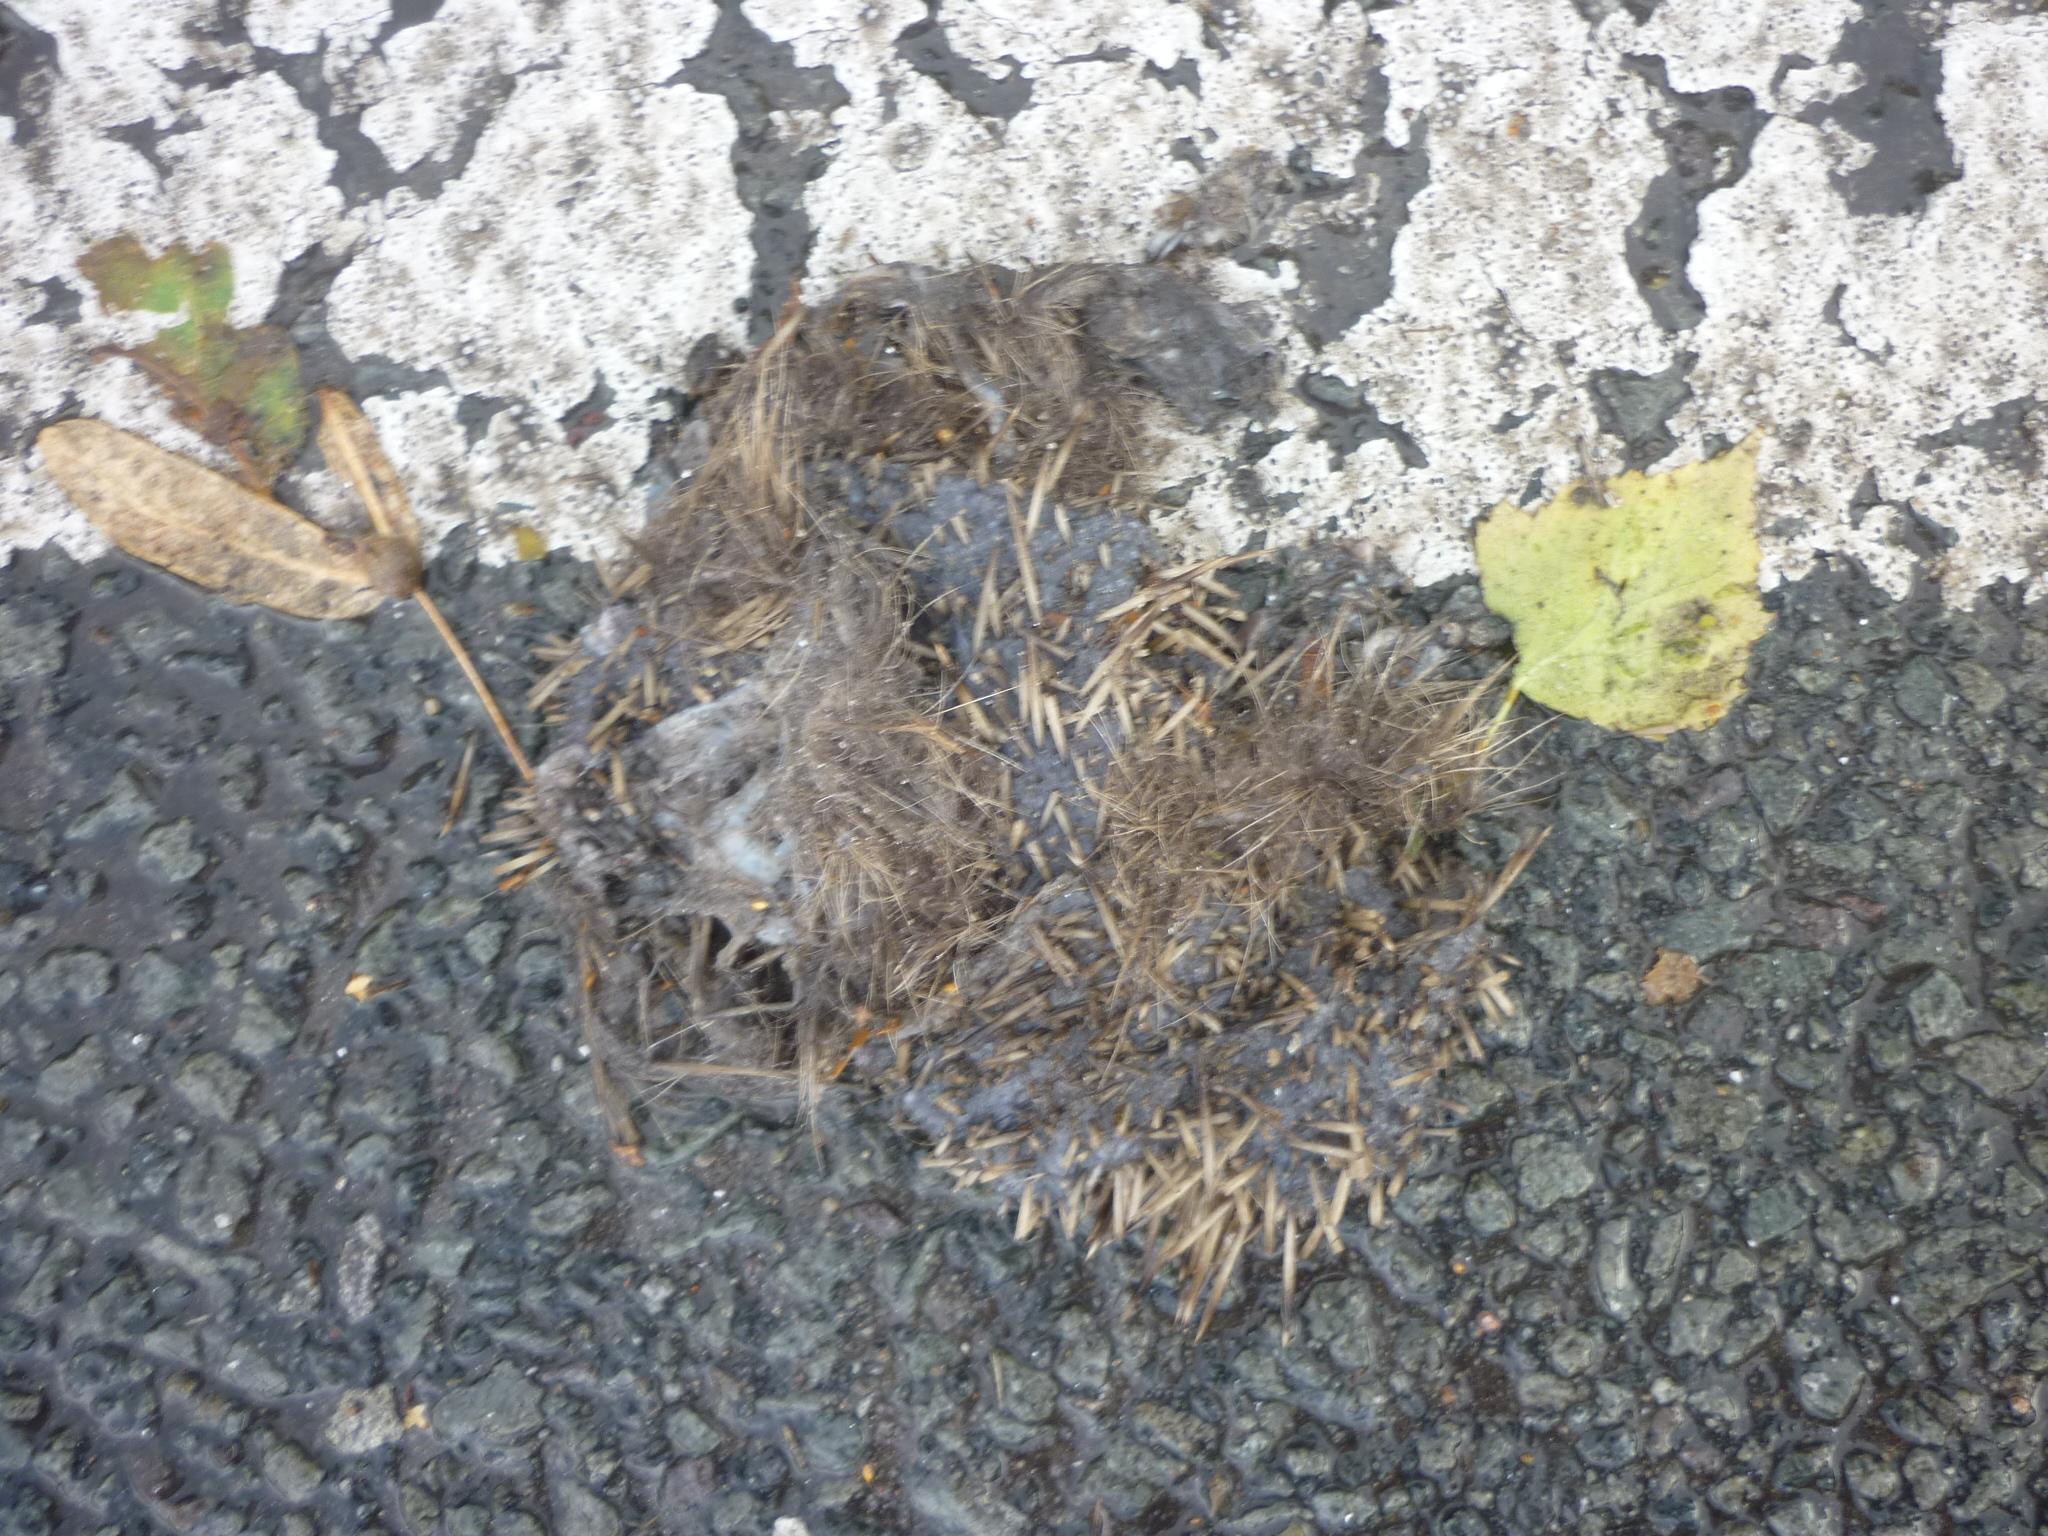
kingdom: Animalia
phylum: Chordata
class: Mammalia
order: Erinaceomorpha
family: Erinaceidae
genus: Erinaceus
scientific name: Erinaceus
